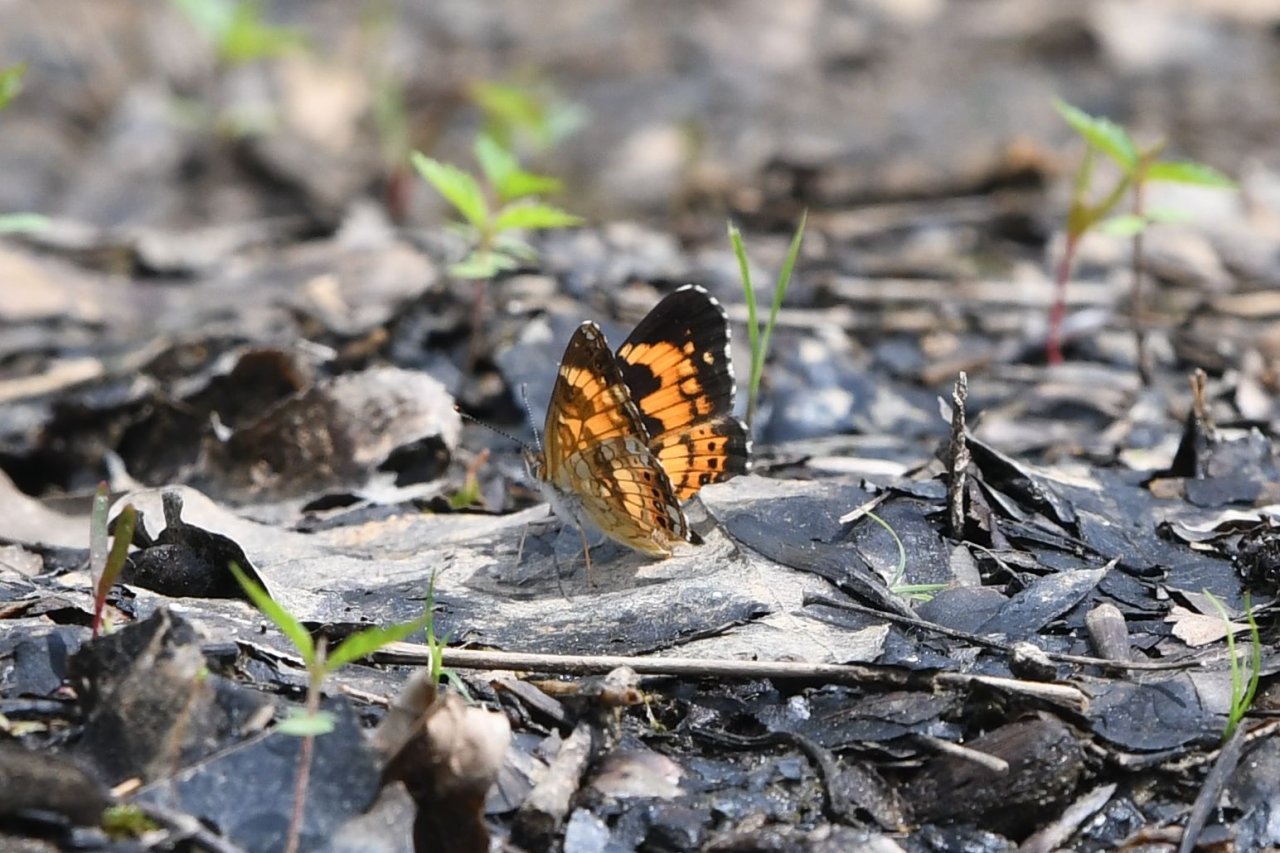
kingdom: Animalia
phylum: Arthropoda
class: Insecta
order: Lepidoptera
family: Nymphalidae
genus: Chlosyne
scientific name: Chlosyne nycteis
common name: Silvery Checkerspot
